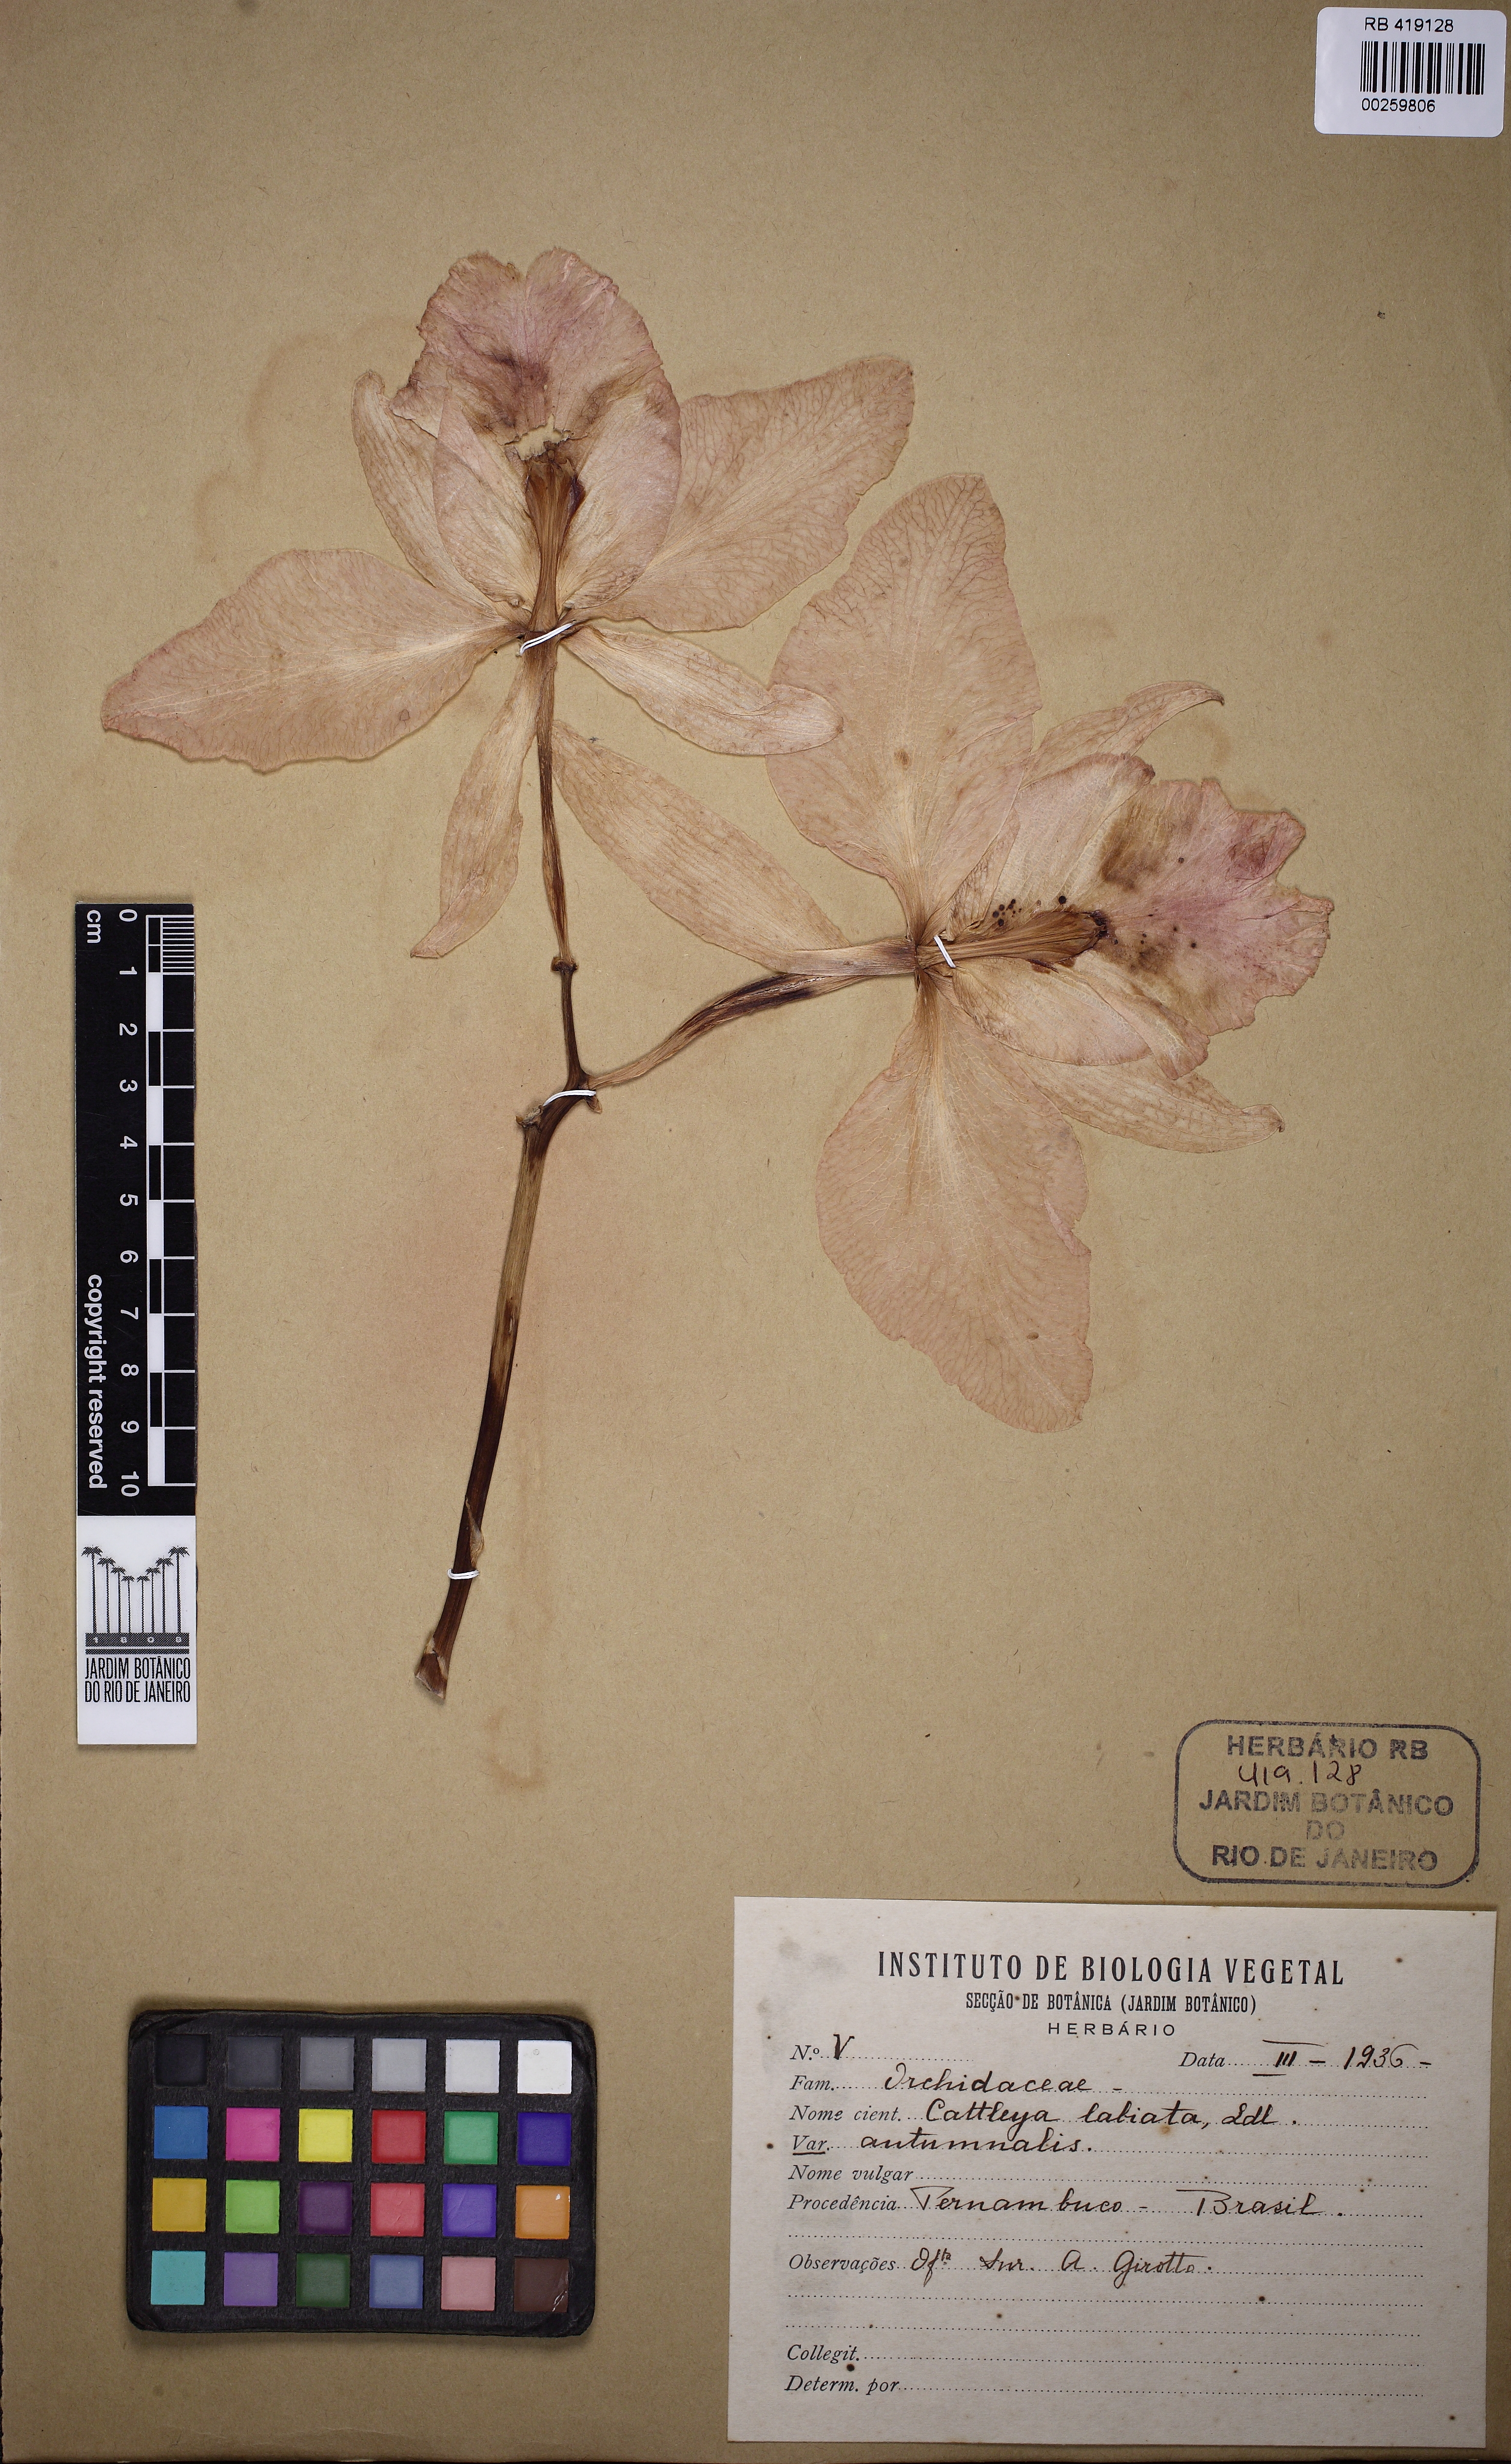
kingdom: Plantae
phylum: Tracheophyta
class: Liliopsida
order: Asparagales
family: Orchidaceae
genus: Cattleya
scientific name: Cattleya labiata
